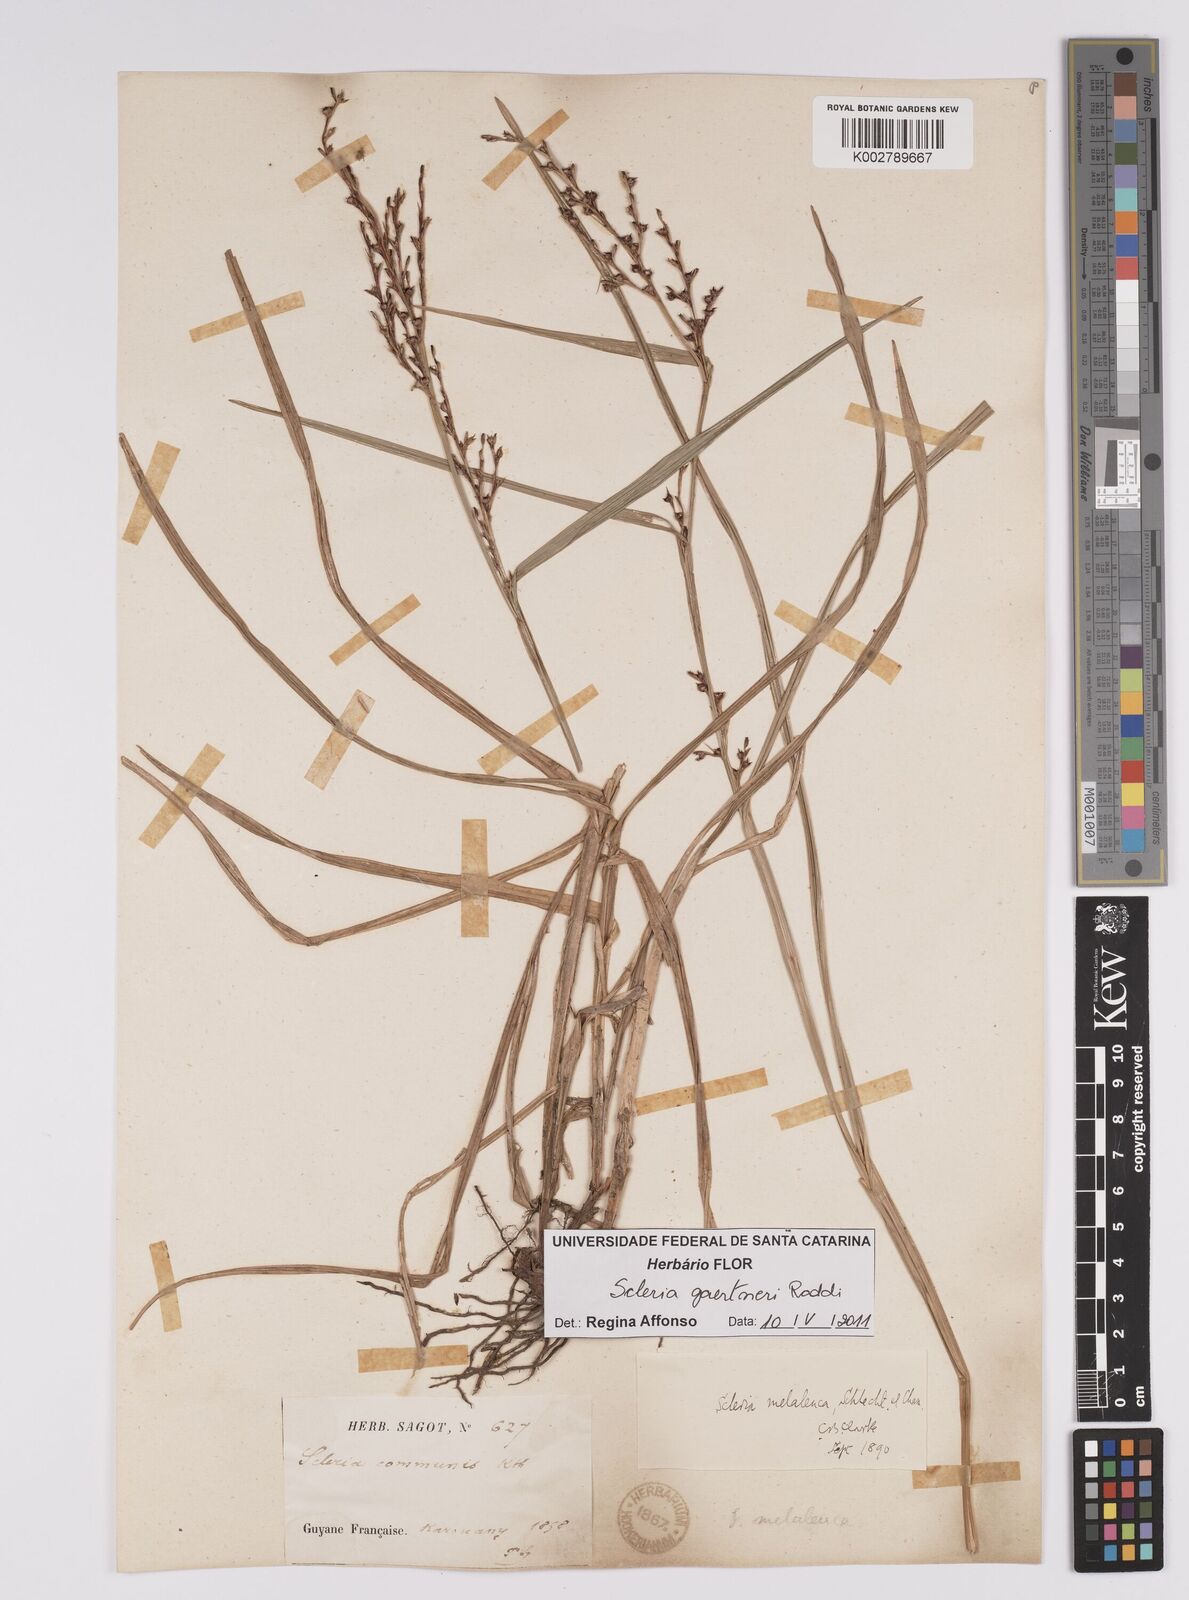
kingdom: Plantae
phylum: Tracheophyta
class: Liliopsida
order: Poales
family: Cyperaceae
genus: Scleria
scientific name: Scleria gaertneri
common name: Cortadera blanca
